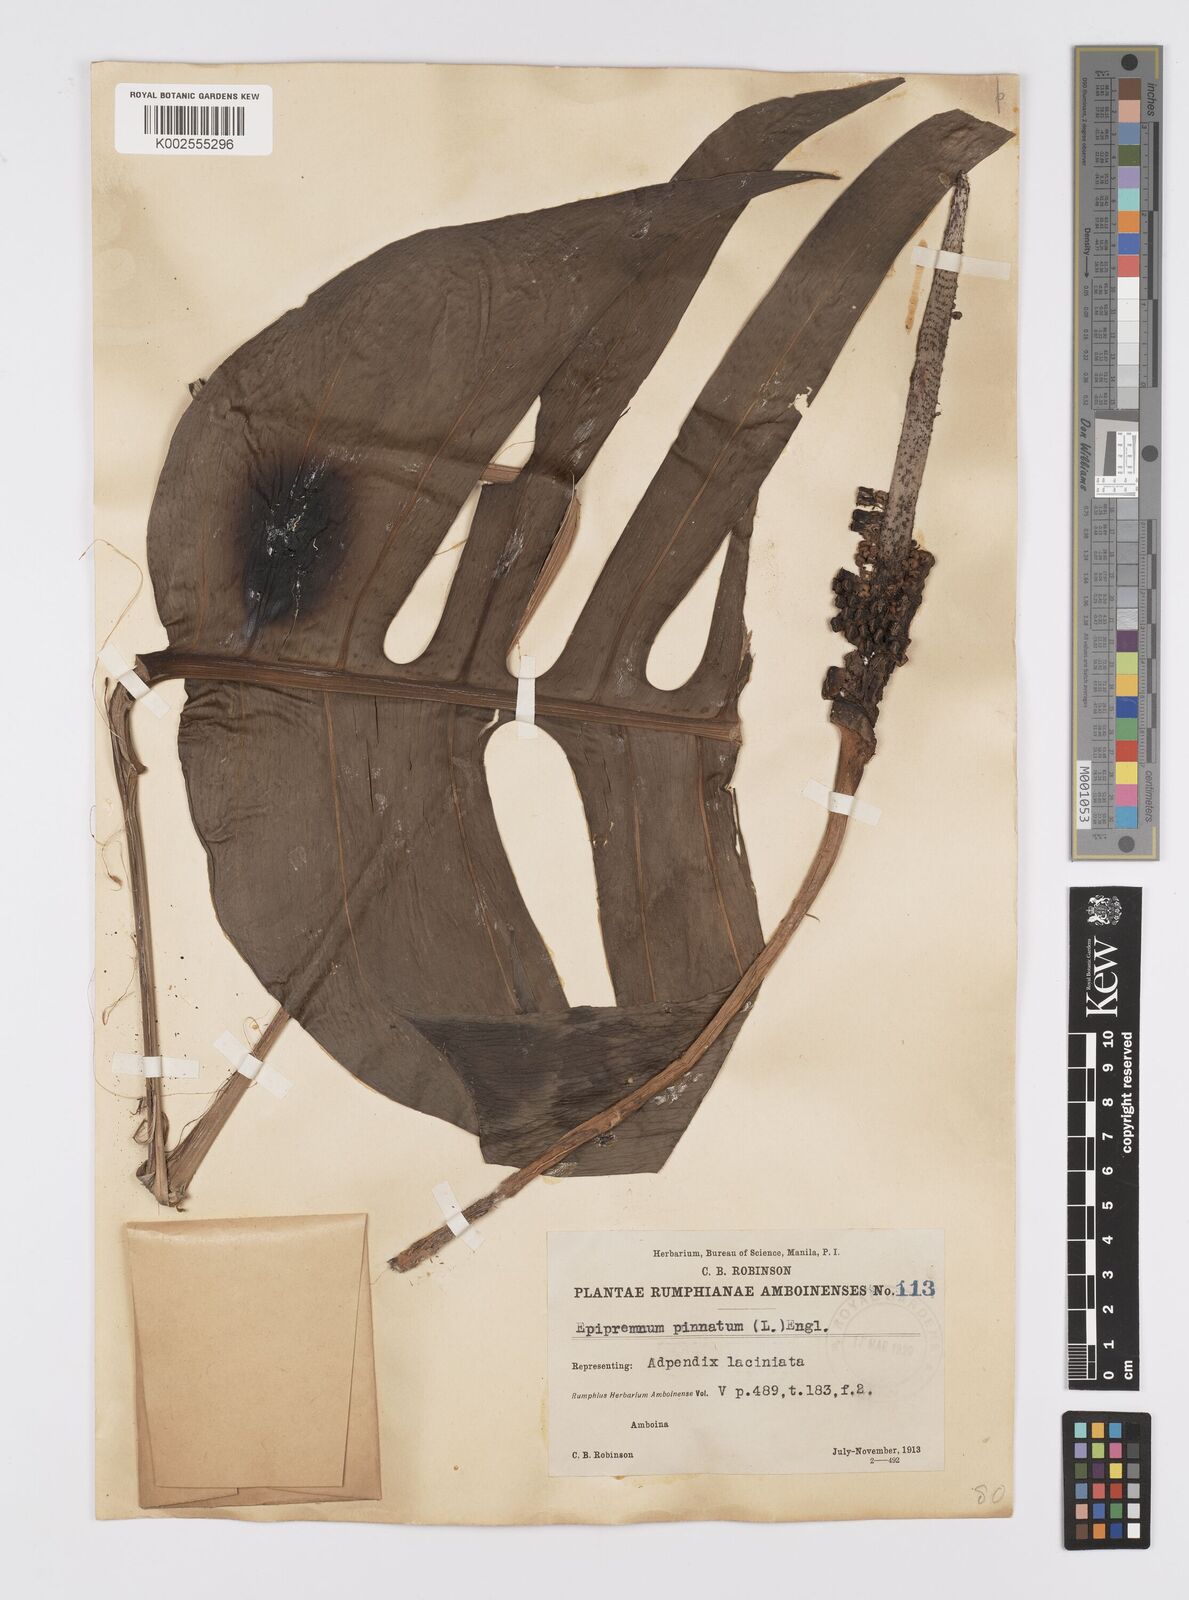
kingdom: Plantae
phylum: Tracheophyta
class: Liliopsida
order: Alismatales
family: Araceae
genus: Epipremnum
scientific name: Epipremnum pinnatum
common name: Centipede tongavine
